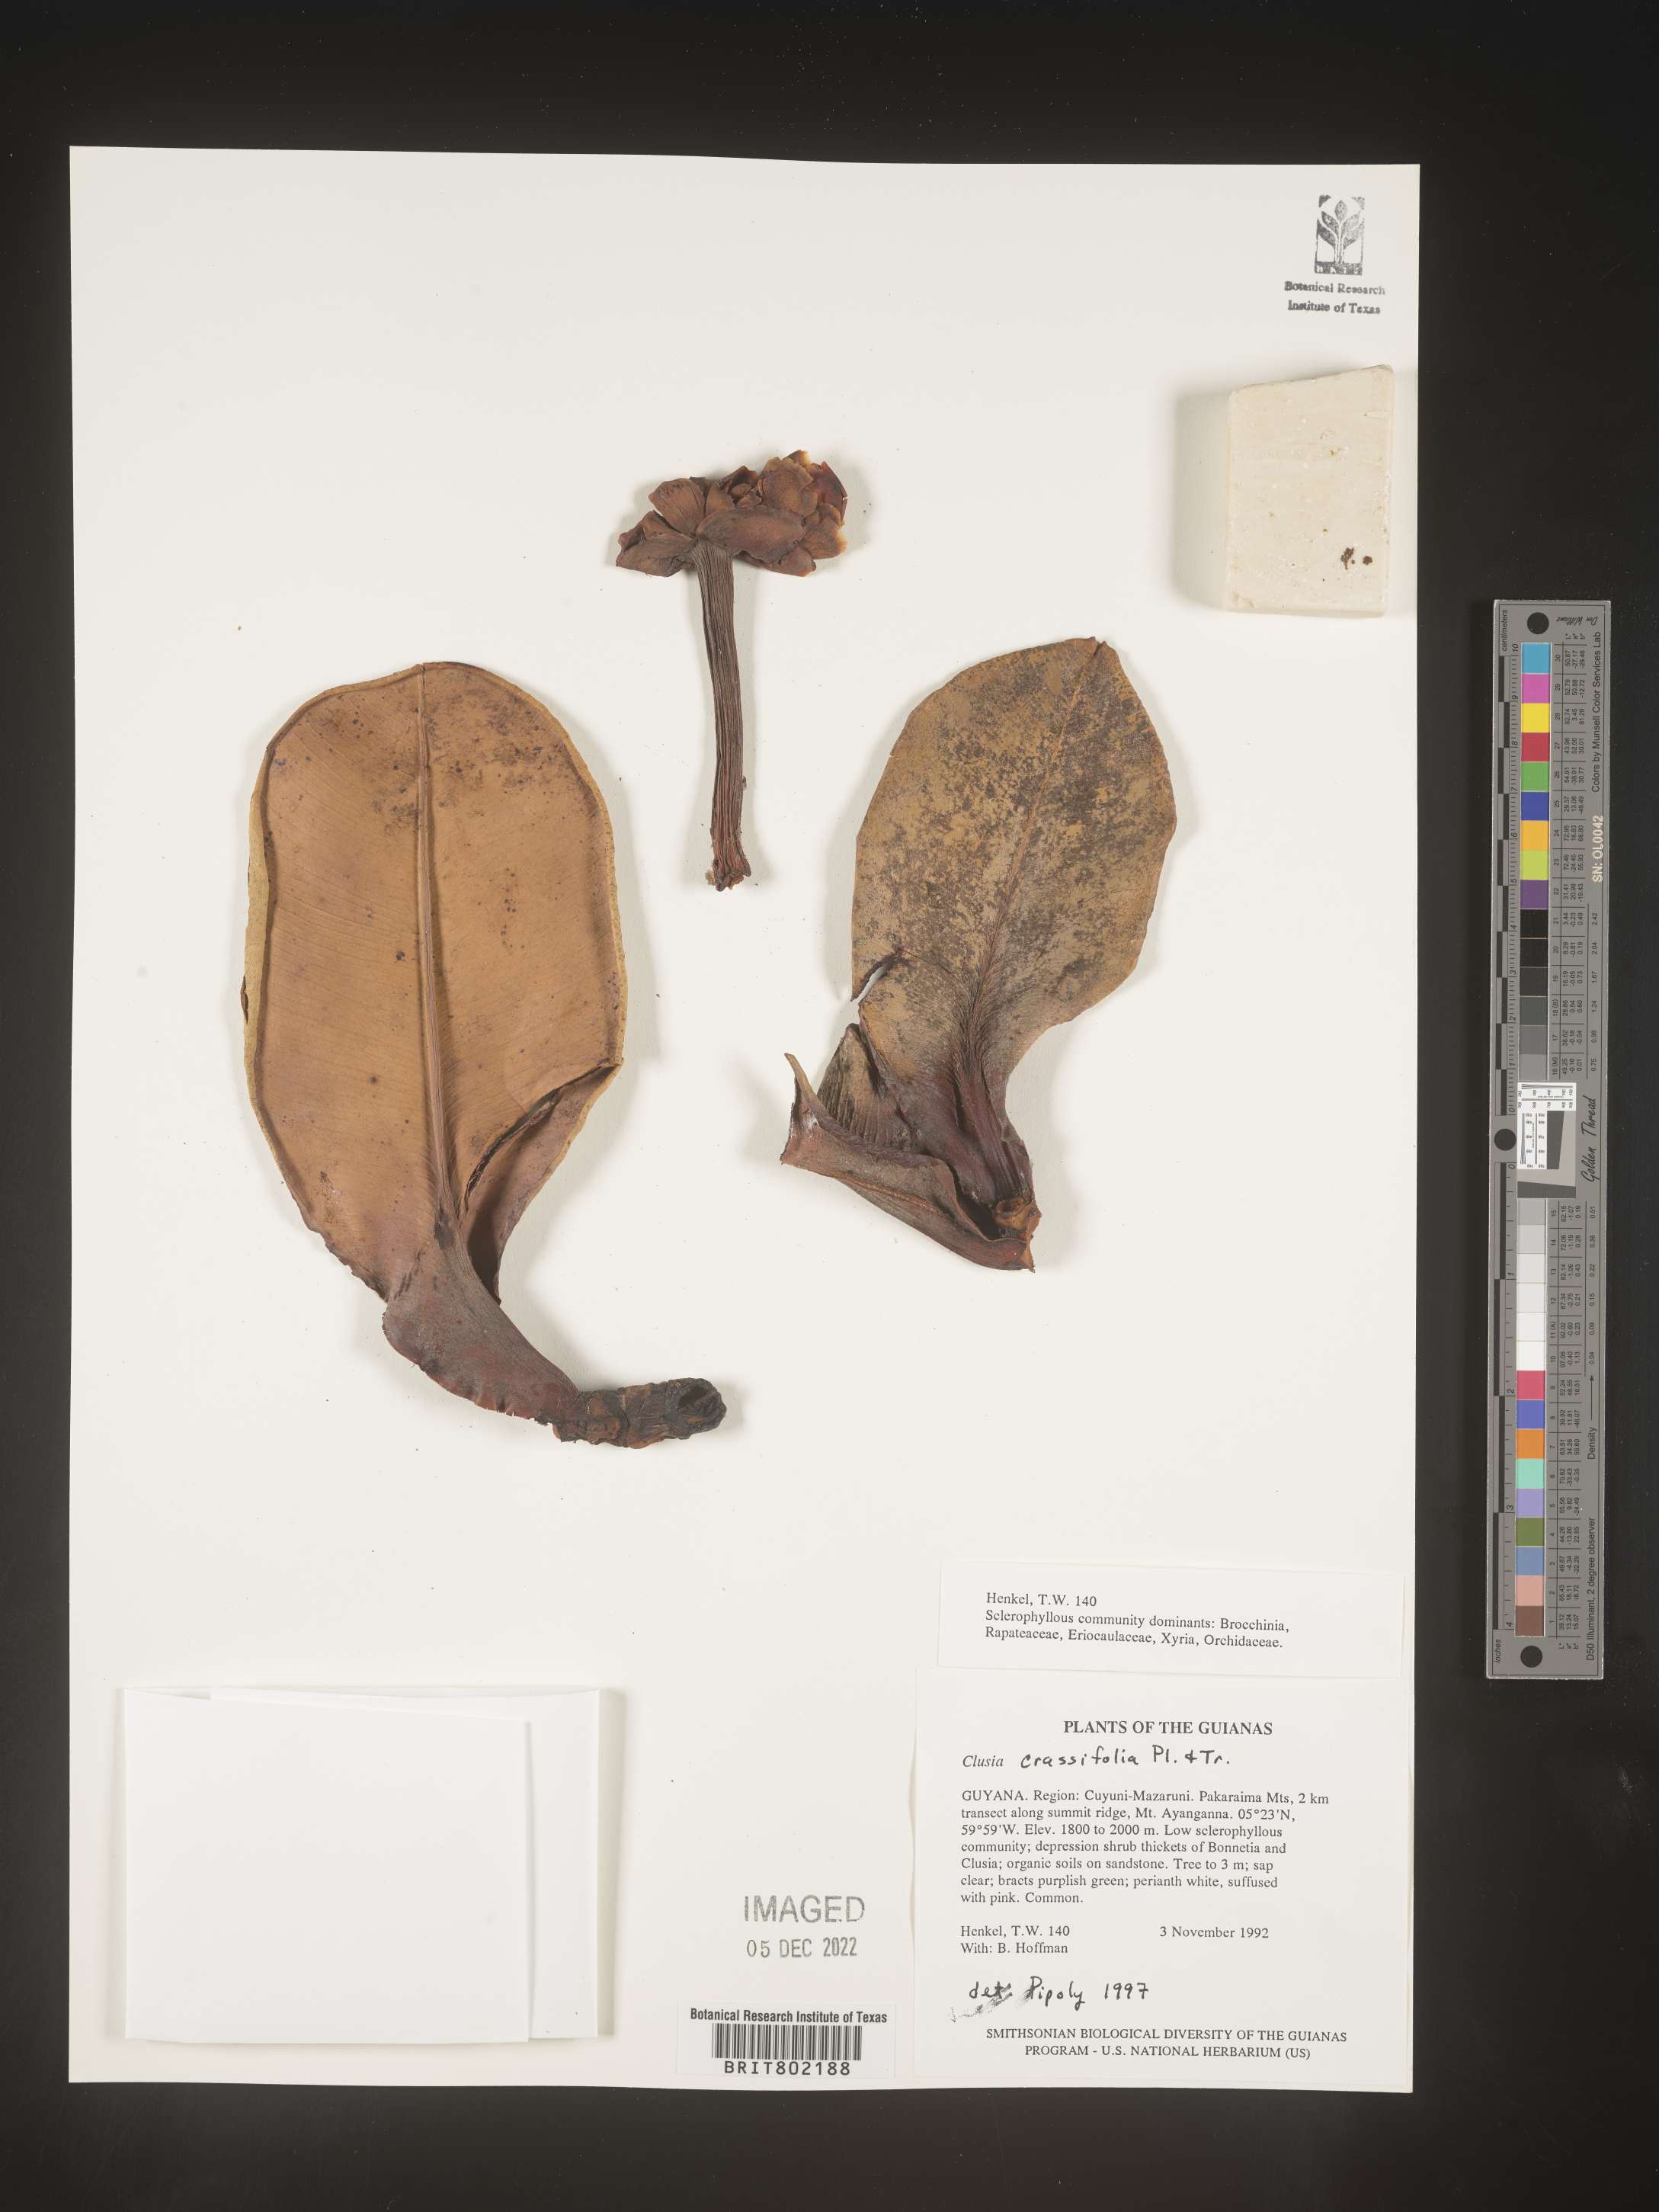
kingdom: Plantae
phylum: Tracheophyta
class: Magnoliopsida
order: Malpighiales
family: Clusiaceae
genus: Clusia
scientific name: Clusia crassifolia
